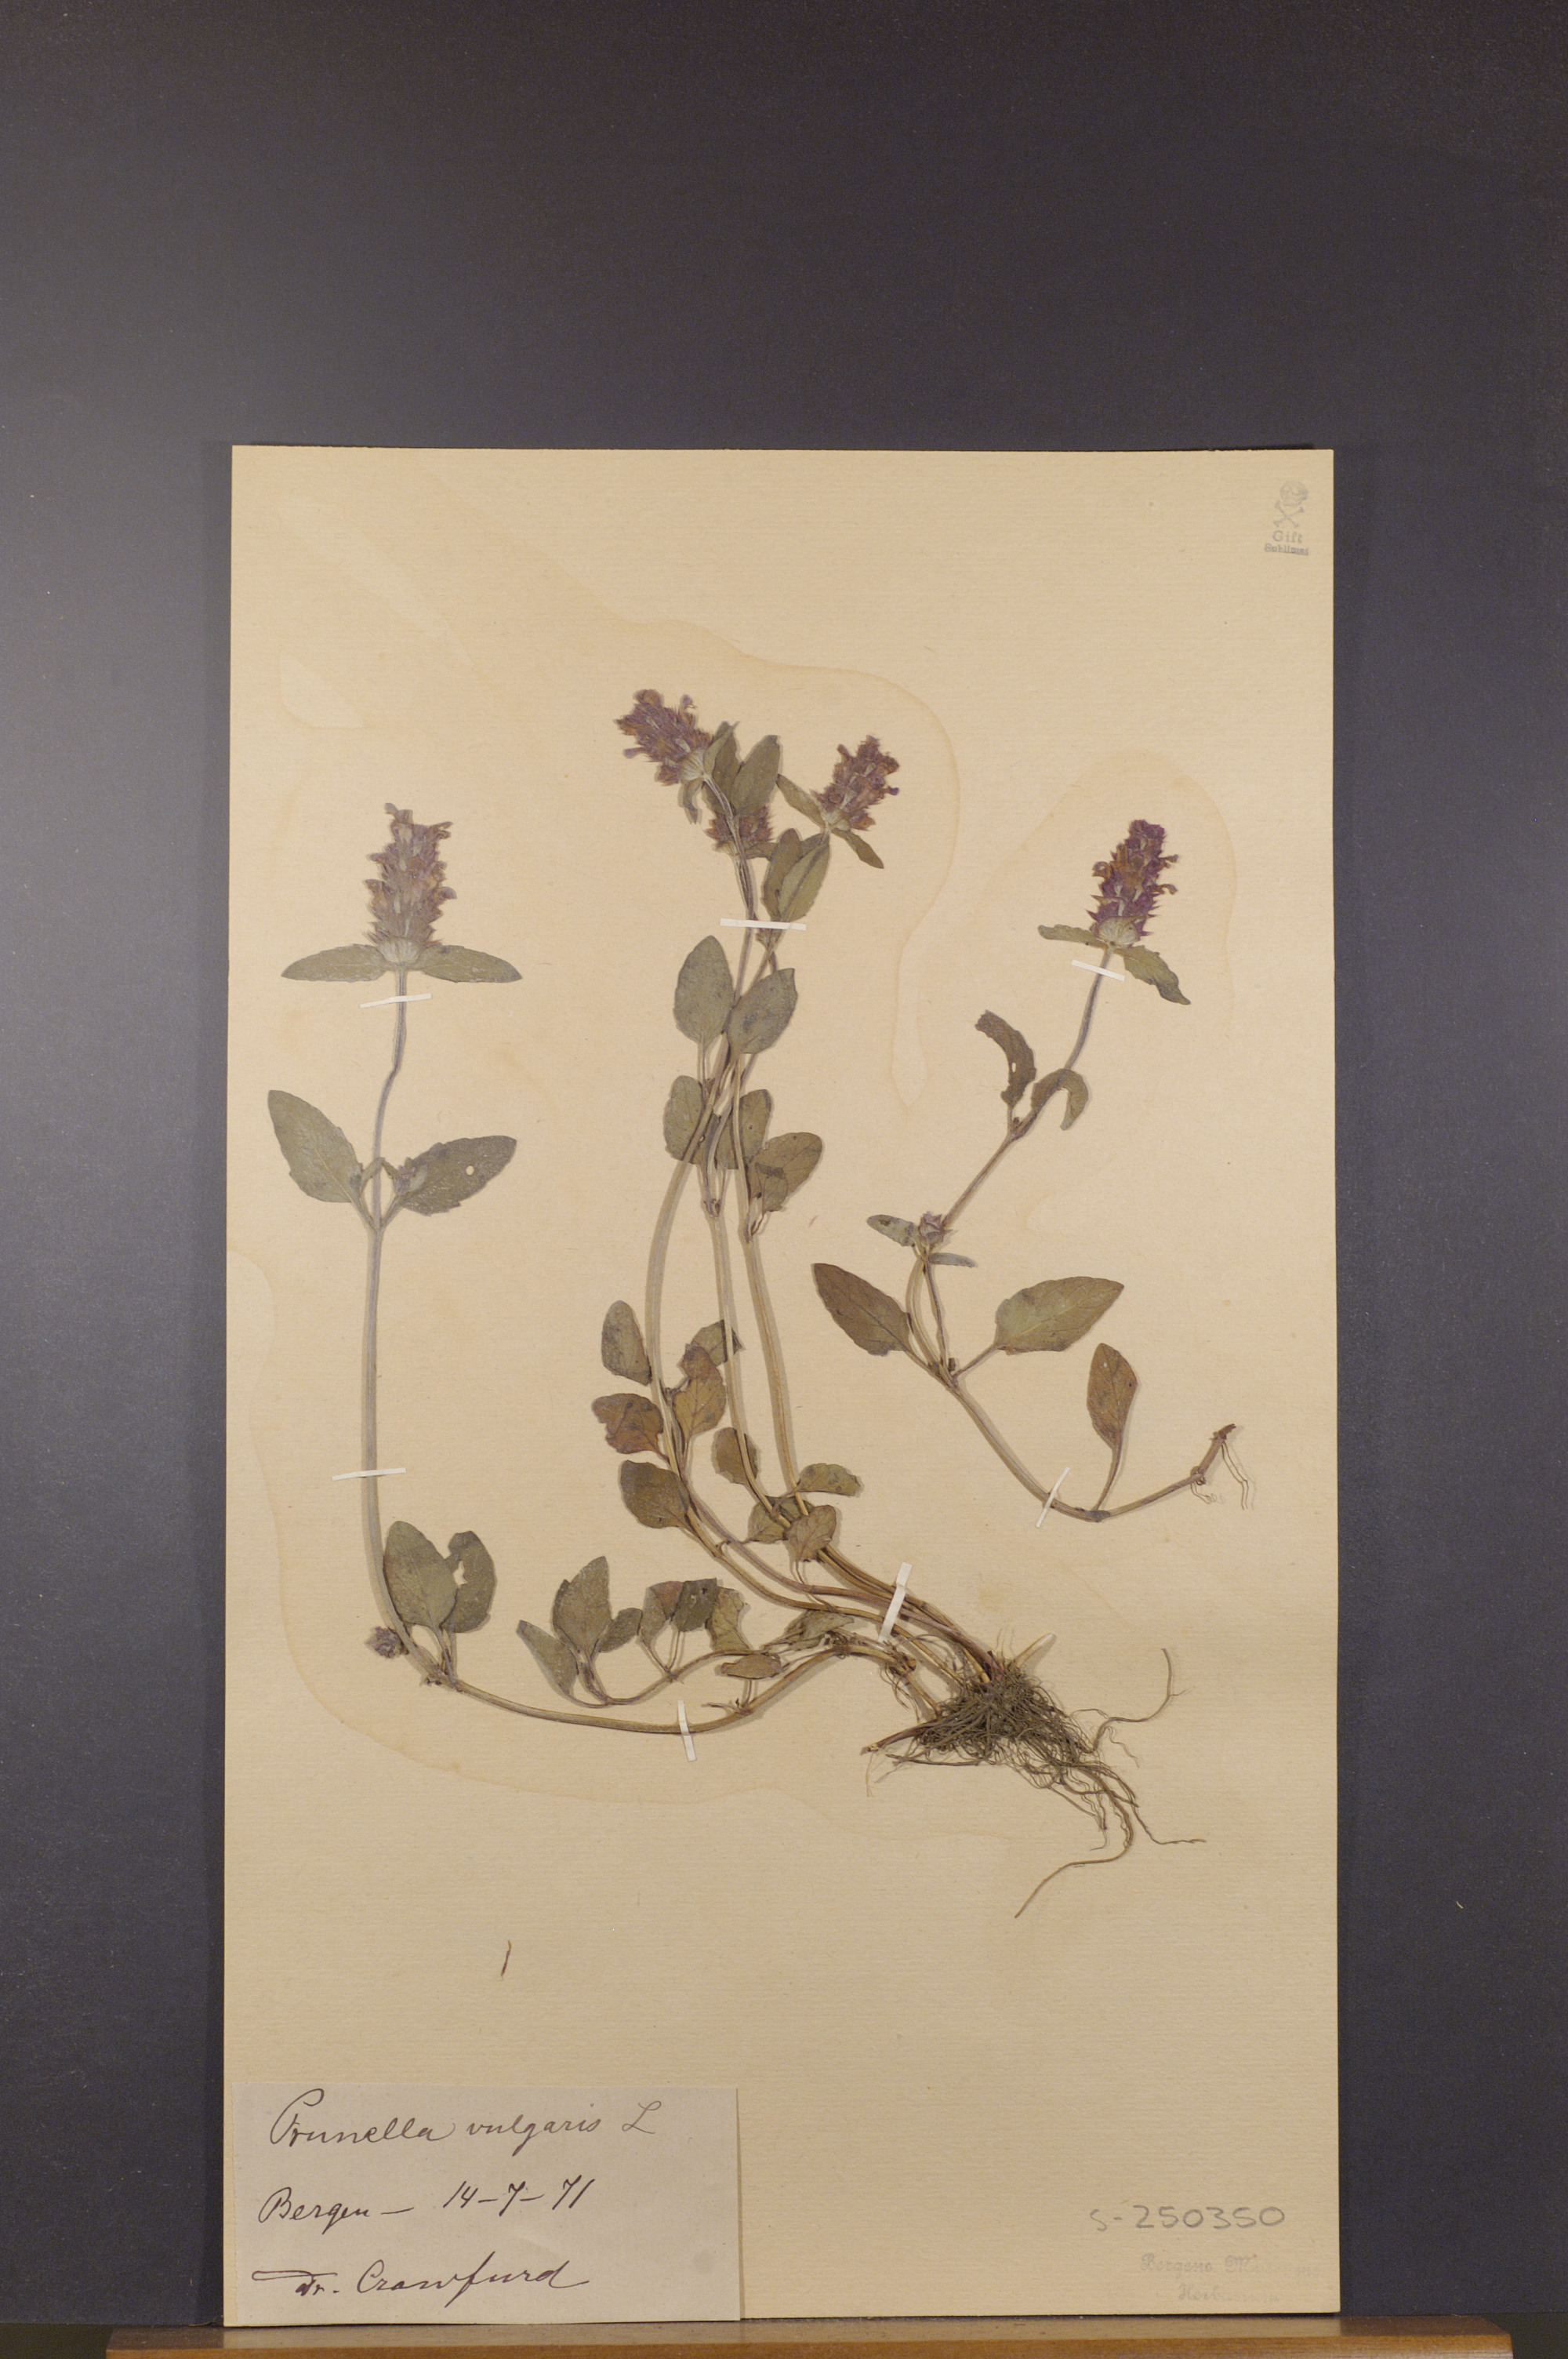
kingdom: Plantae
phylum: Tracheophyta
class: Magnoliopsida
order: Lamiales
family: Lamiaceae
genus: Prunella
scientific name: Prunella vulgaris
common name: Heal-all
